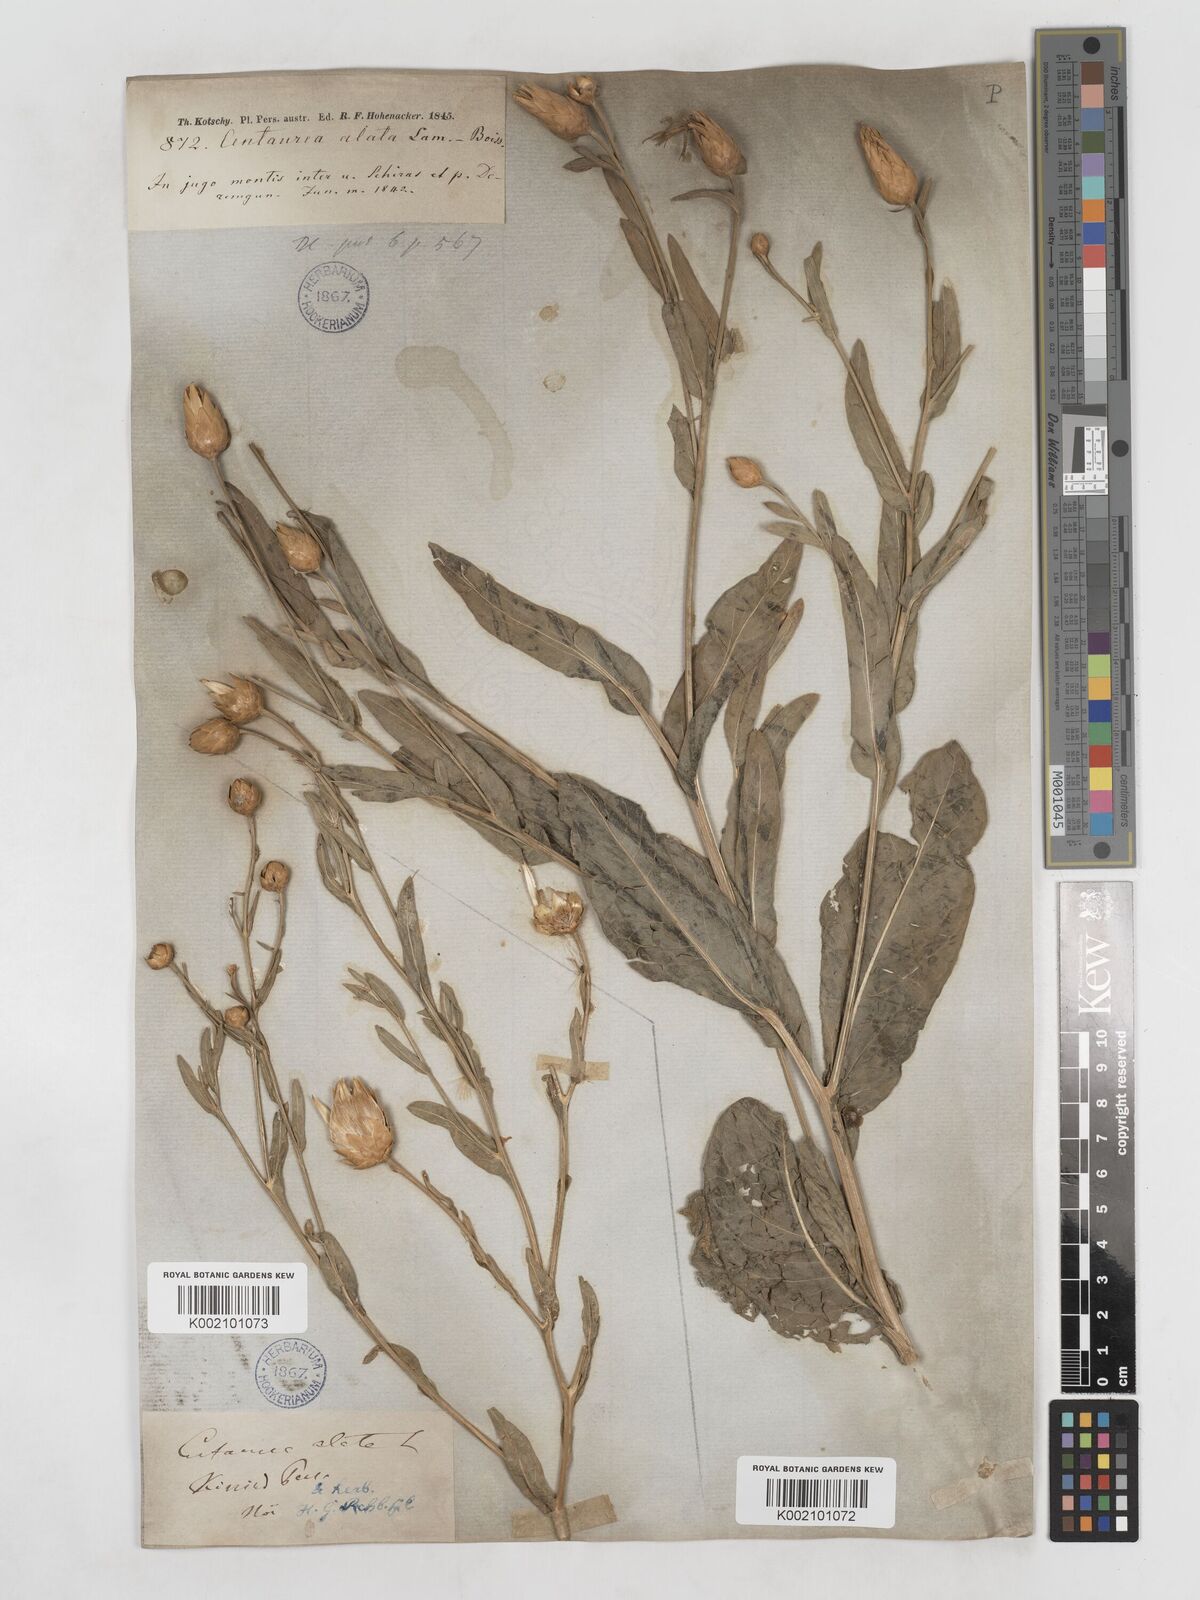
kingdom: Plantae
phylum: Tracheophyta
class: Magnoliopsida
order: Asterales
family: Asteraceae
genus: Centaurea
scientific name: Centaurea behen
